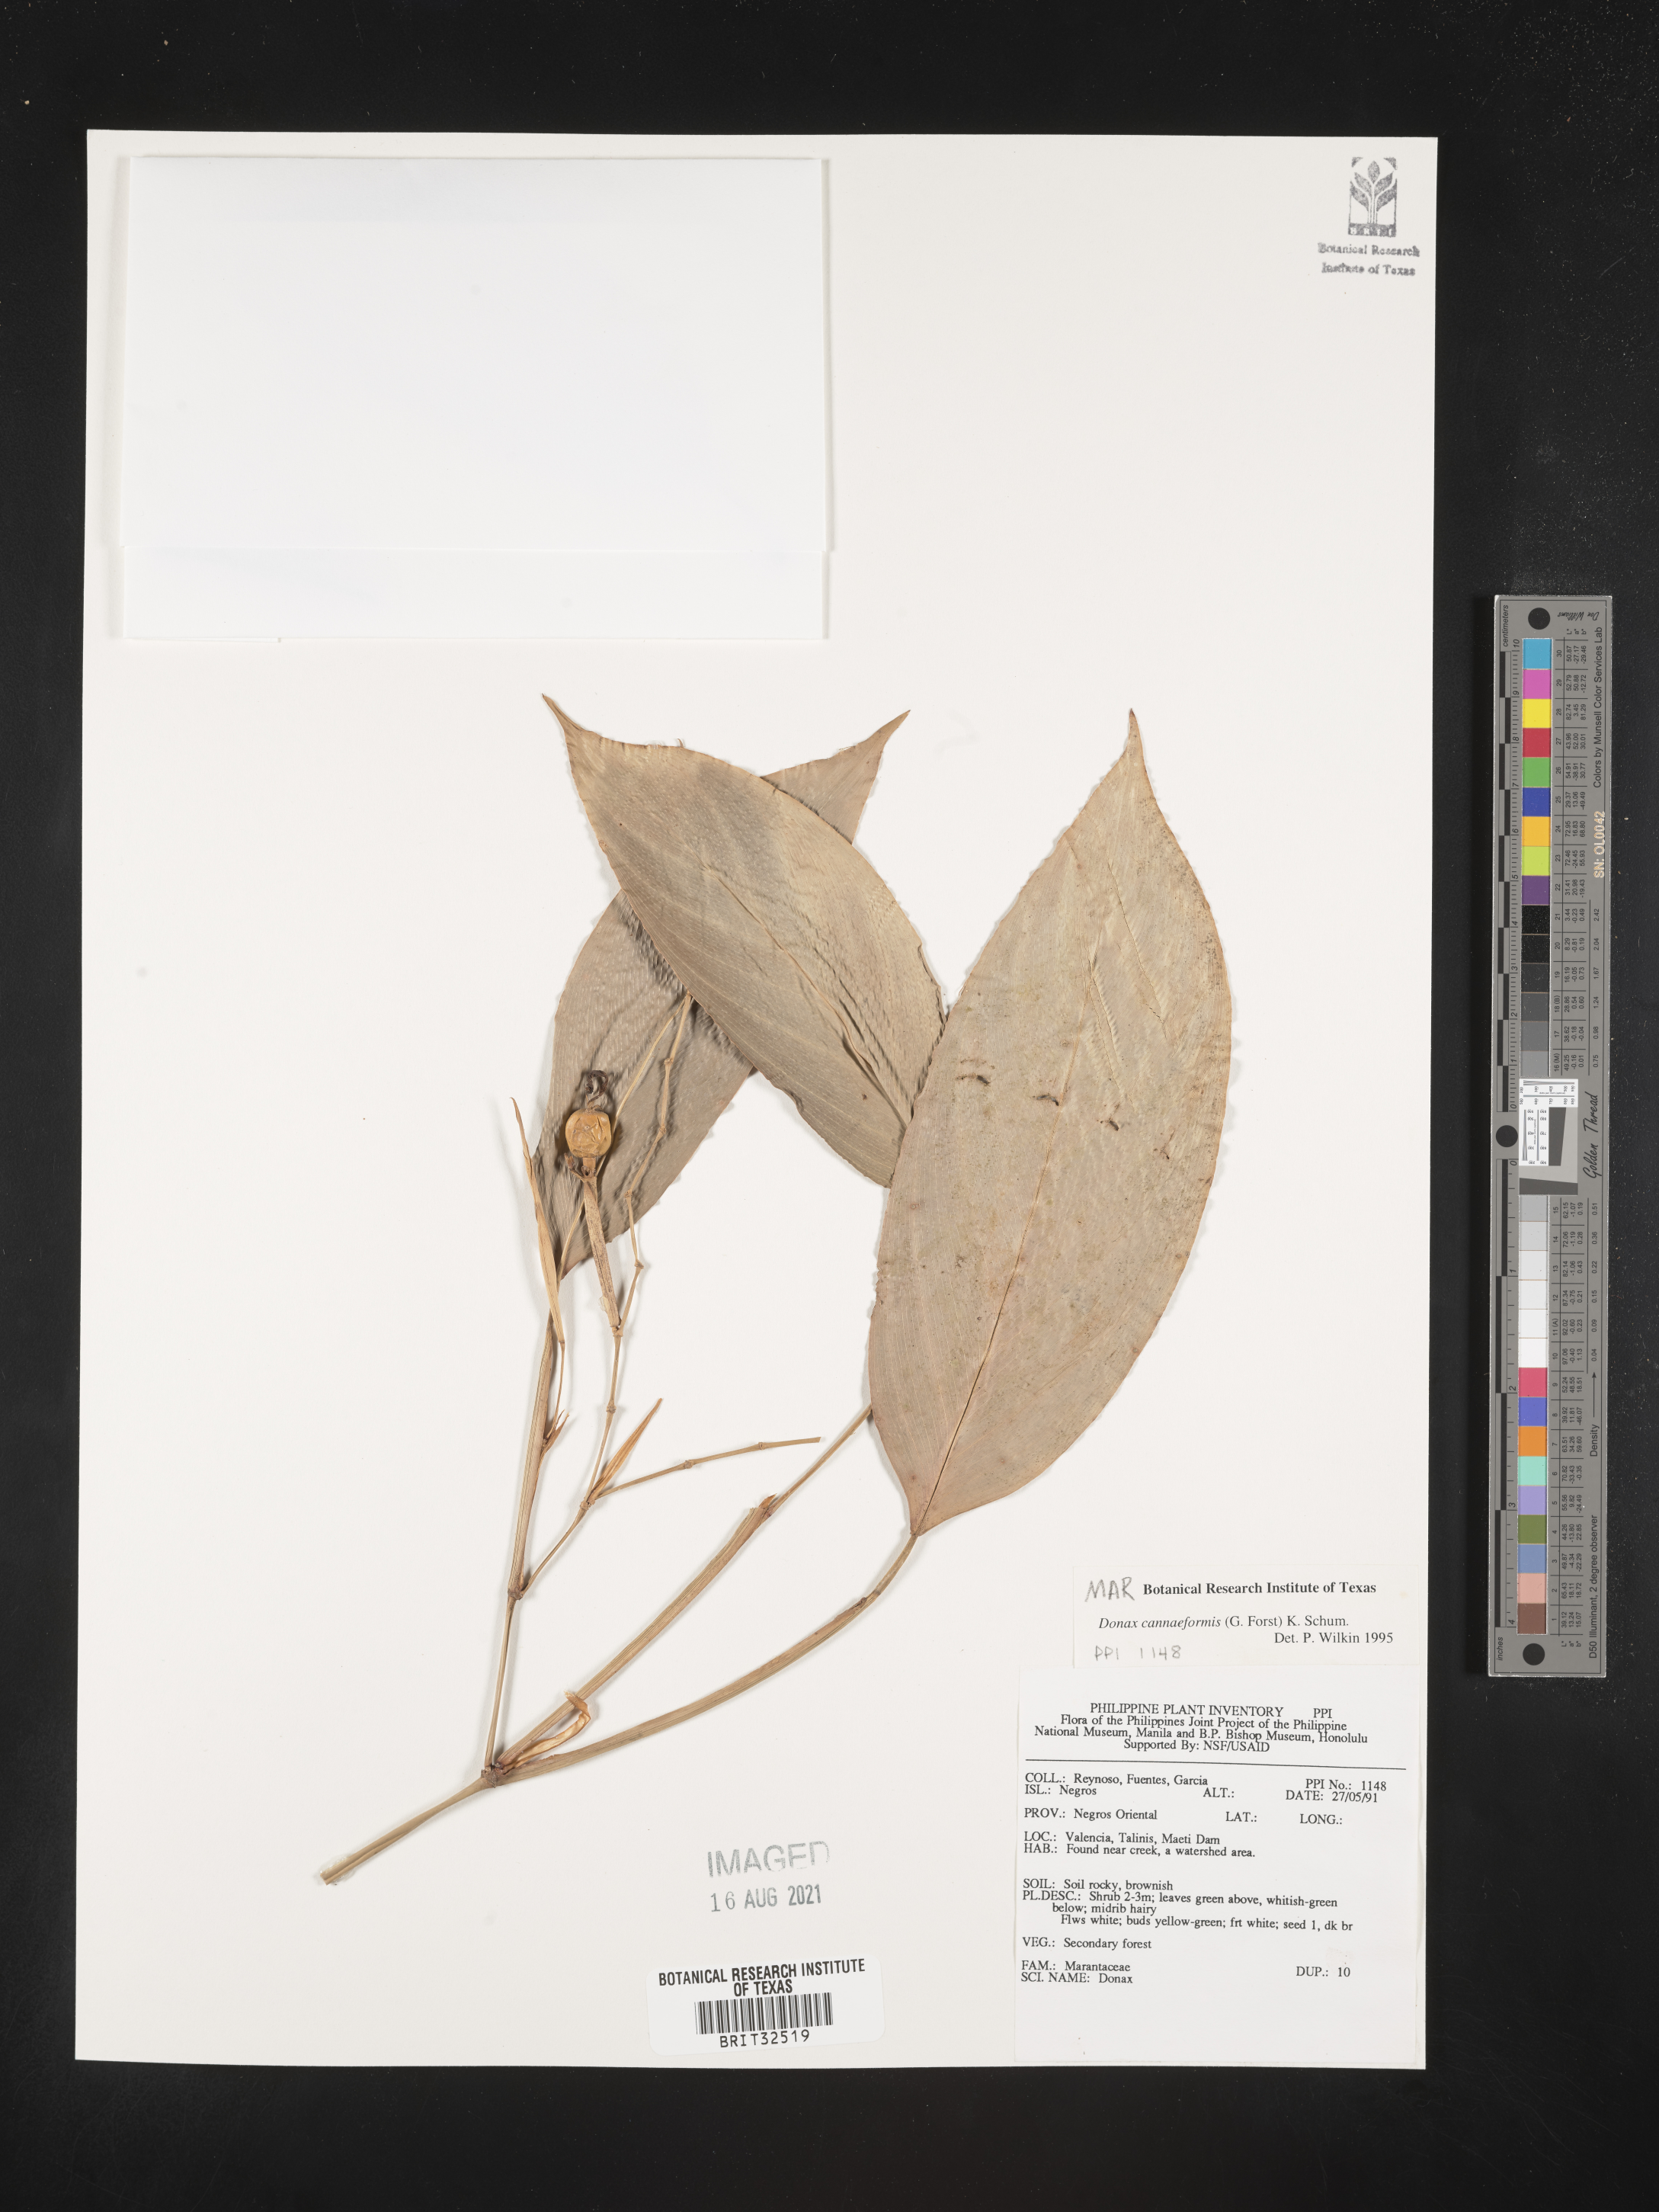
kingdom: Plantae
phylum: Tracheophyta
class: Liliopsida
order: Zingiberales
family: Marantaceae
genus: Donax
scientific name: Donax
